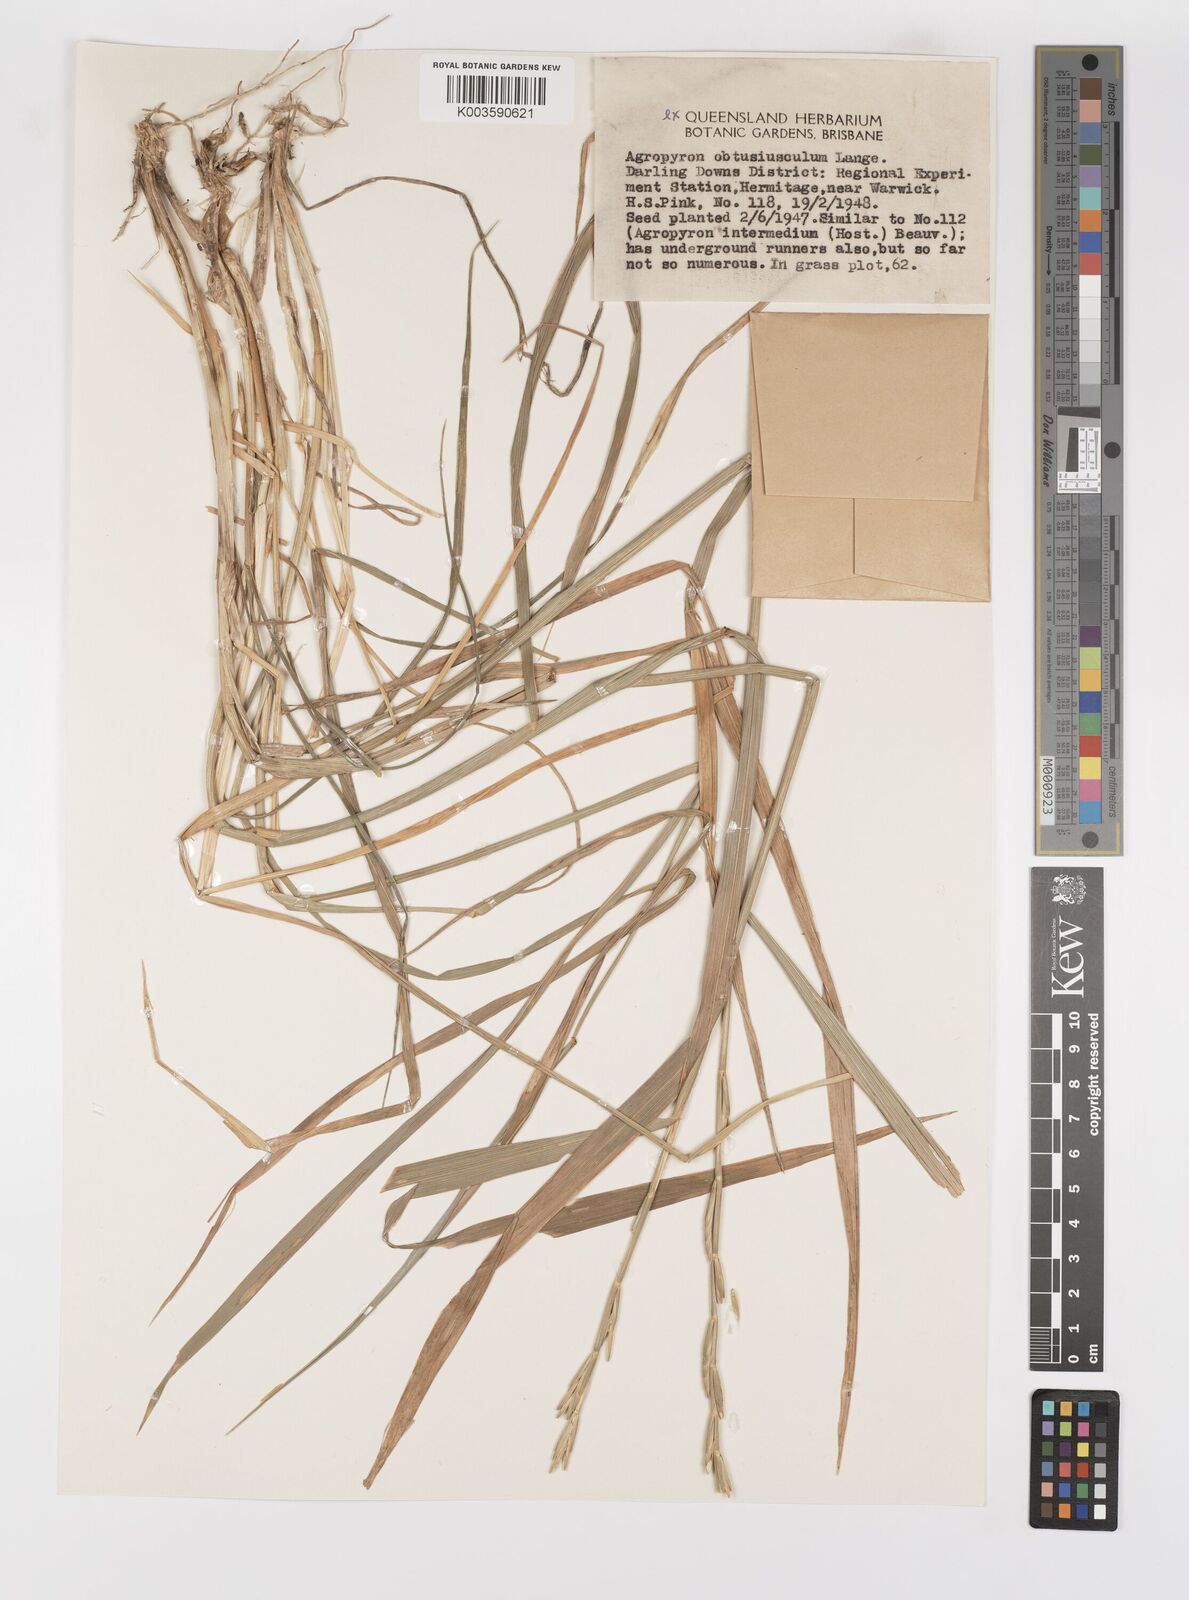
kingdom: Plantae
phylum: Tracheophyta
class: Liliopsida
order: Poales
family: Poaceae
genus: Thinopyrum
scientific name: Thinopyrum junceum
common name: Russian wheatgrass
